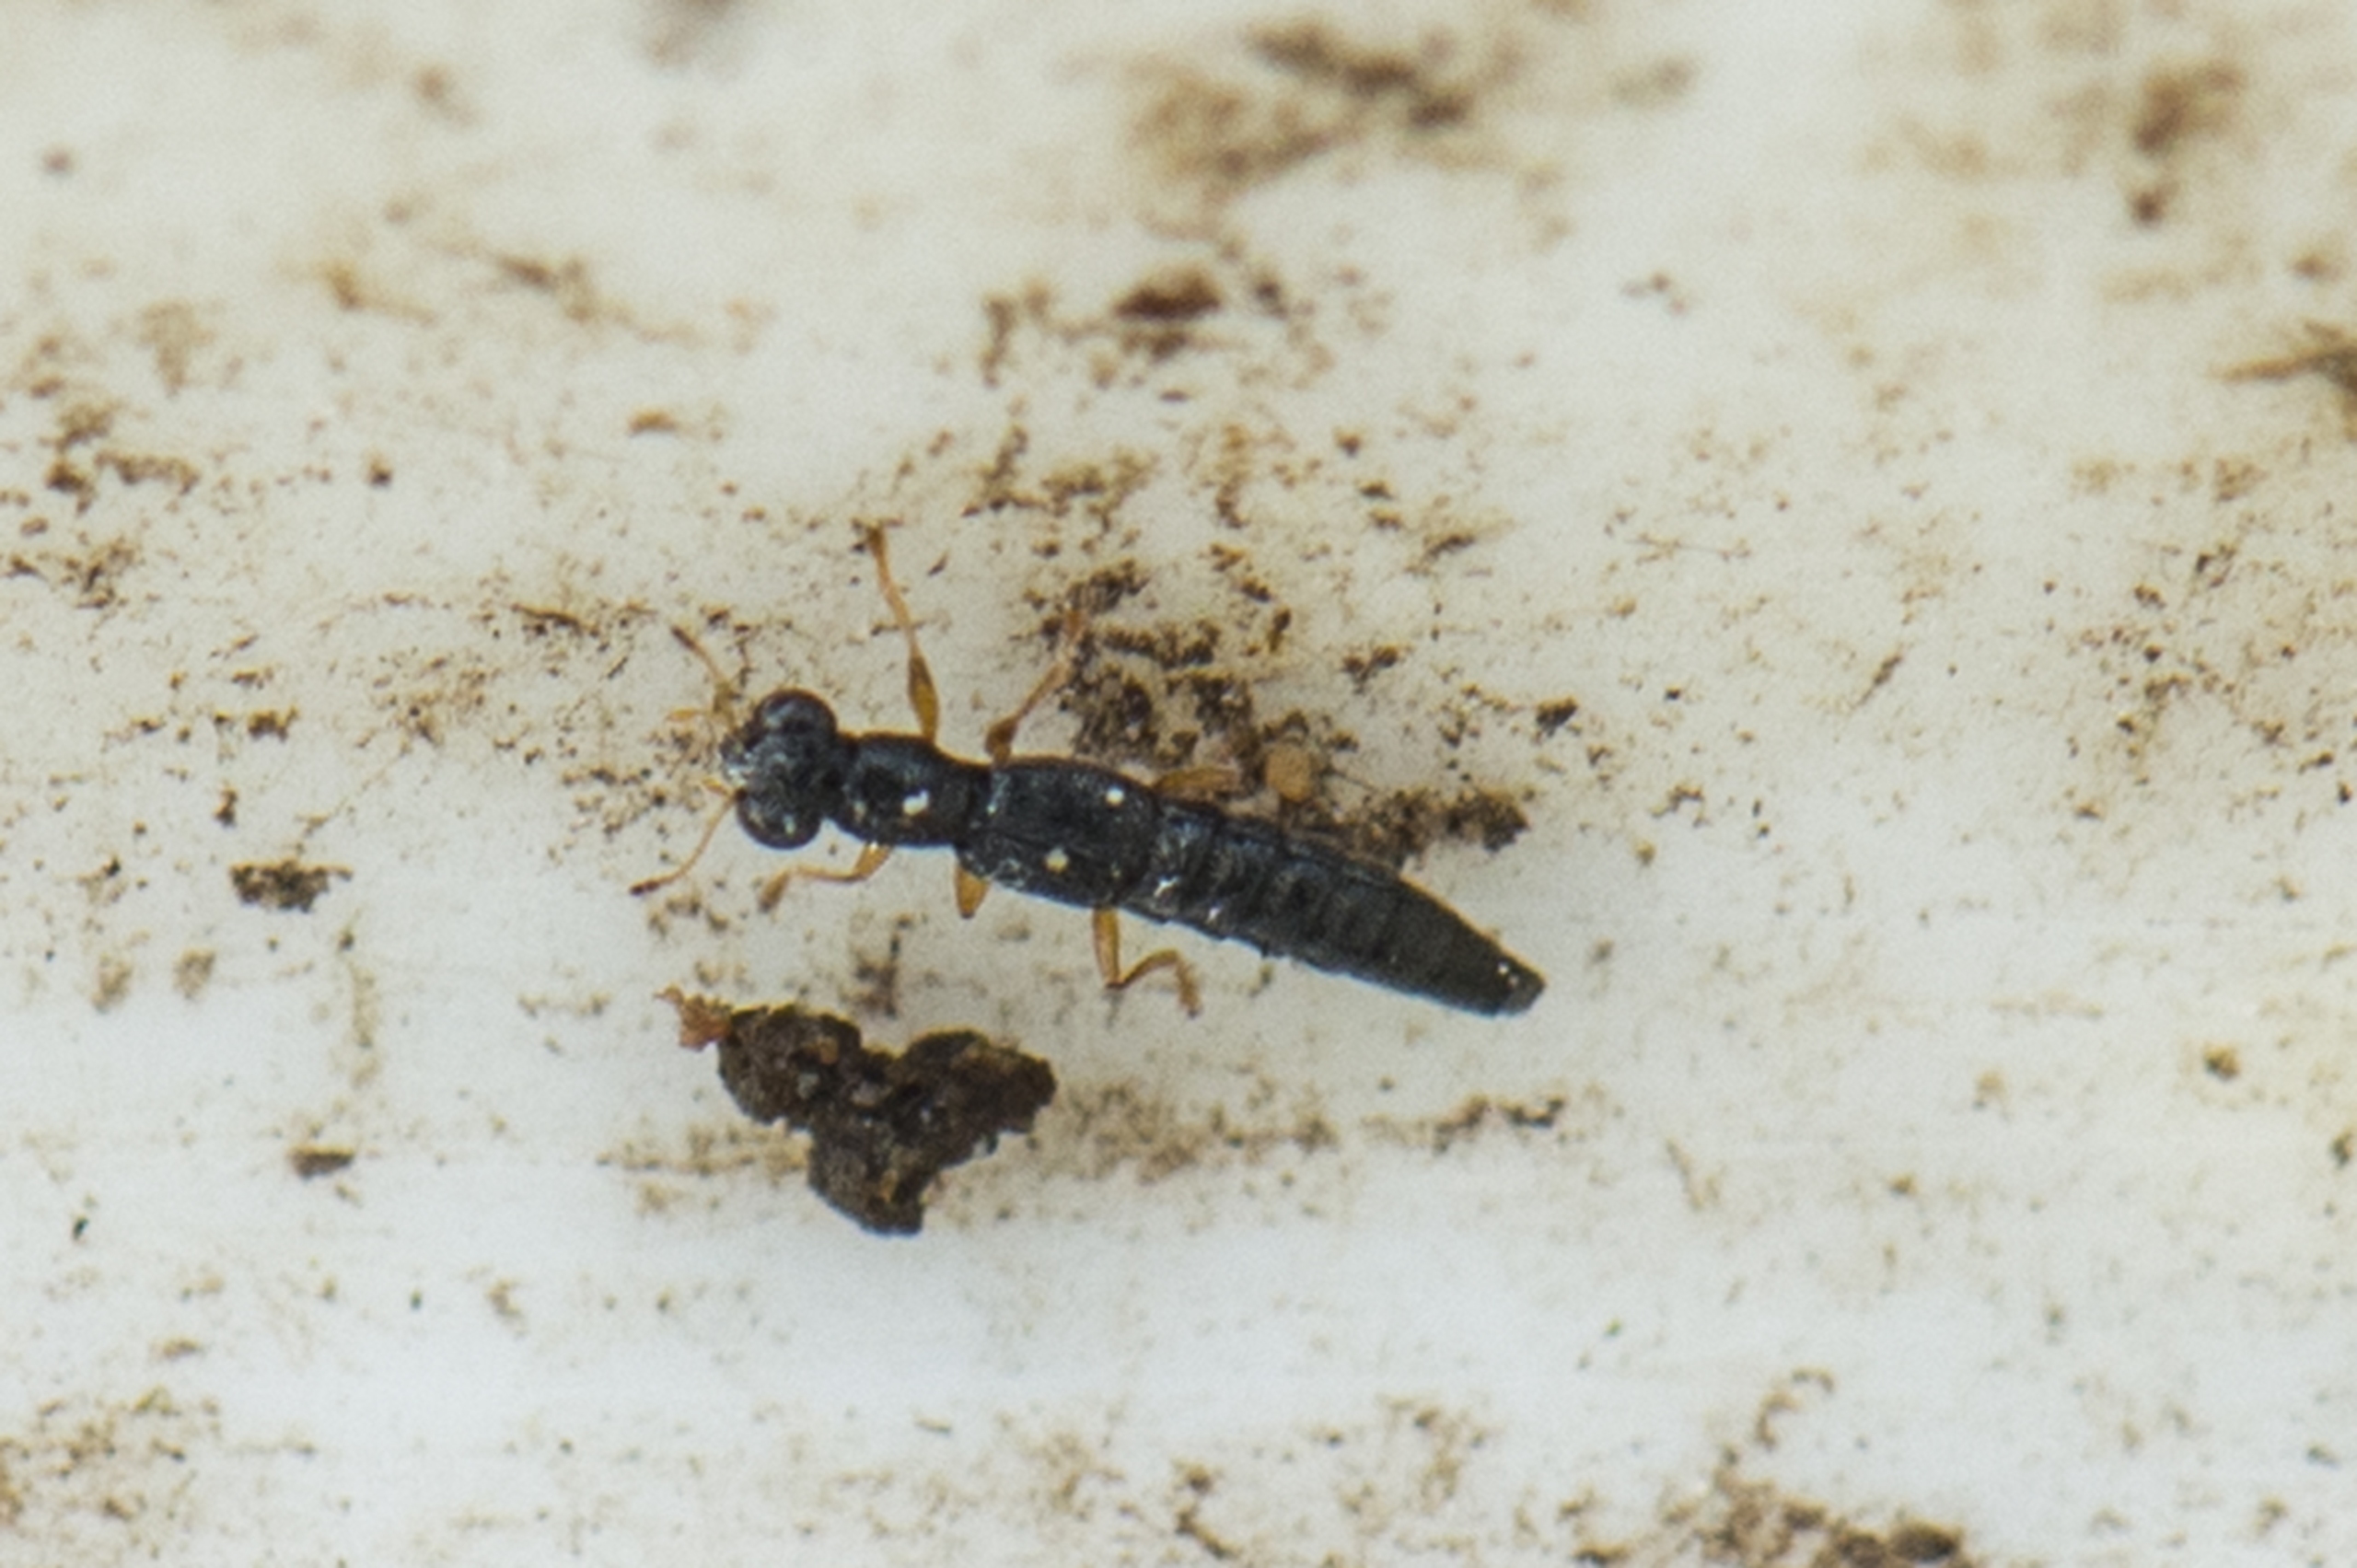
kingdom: Animalia
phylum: Arthropoda
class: Insecta
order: Coleoptera
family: Staphylinidae
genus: Stenus
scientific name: Stenus flavipes
